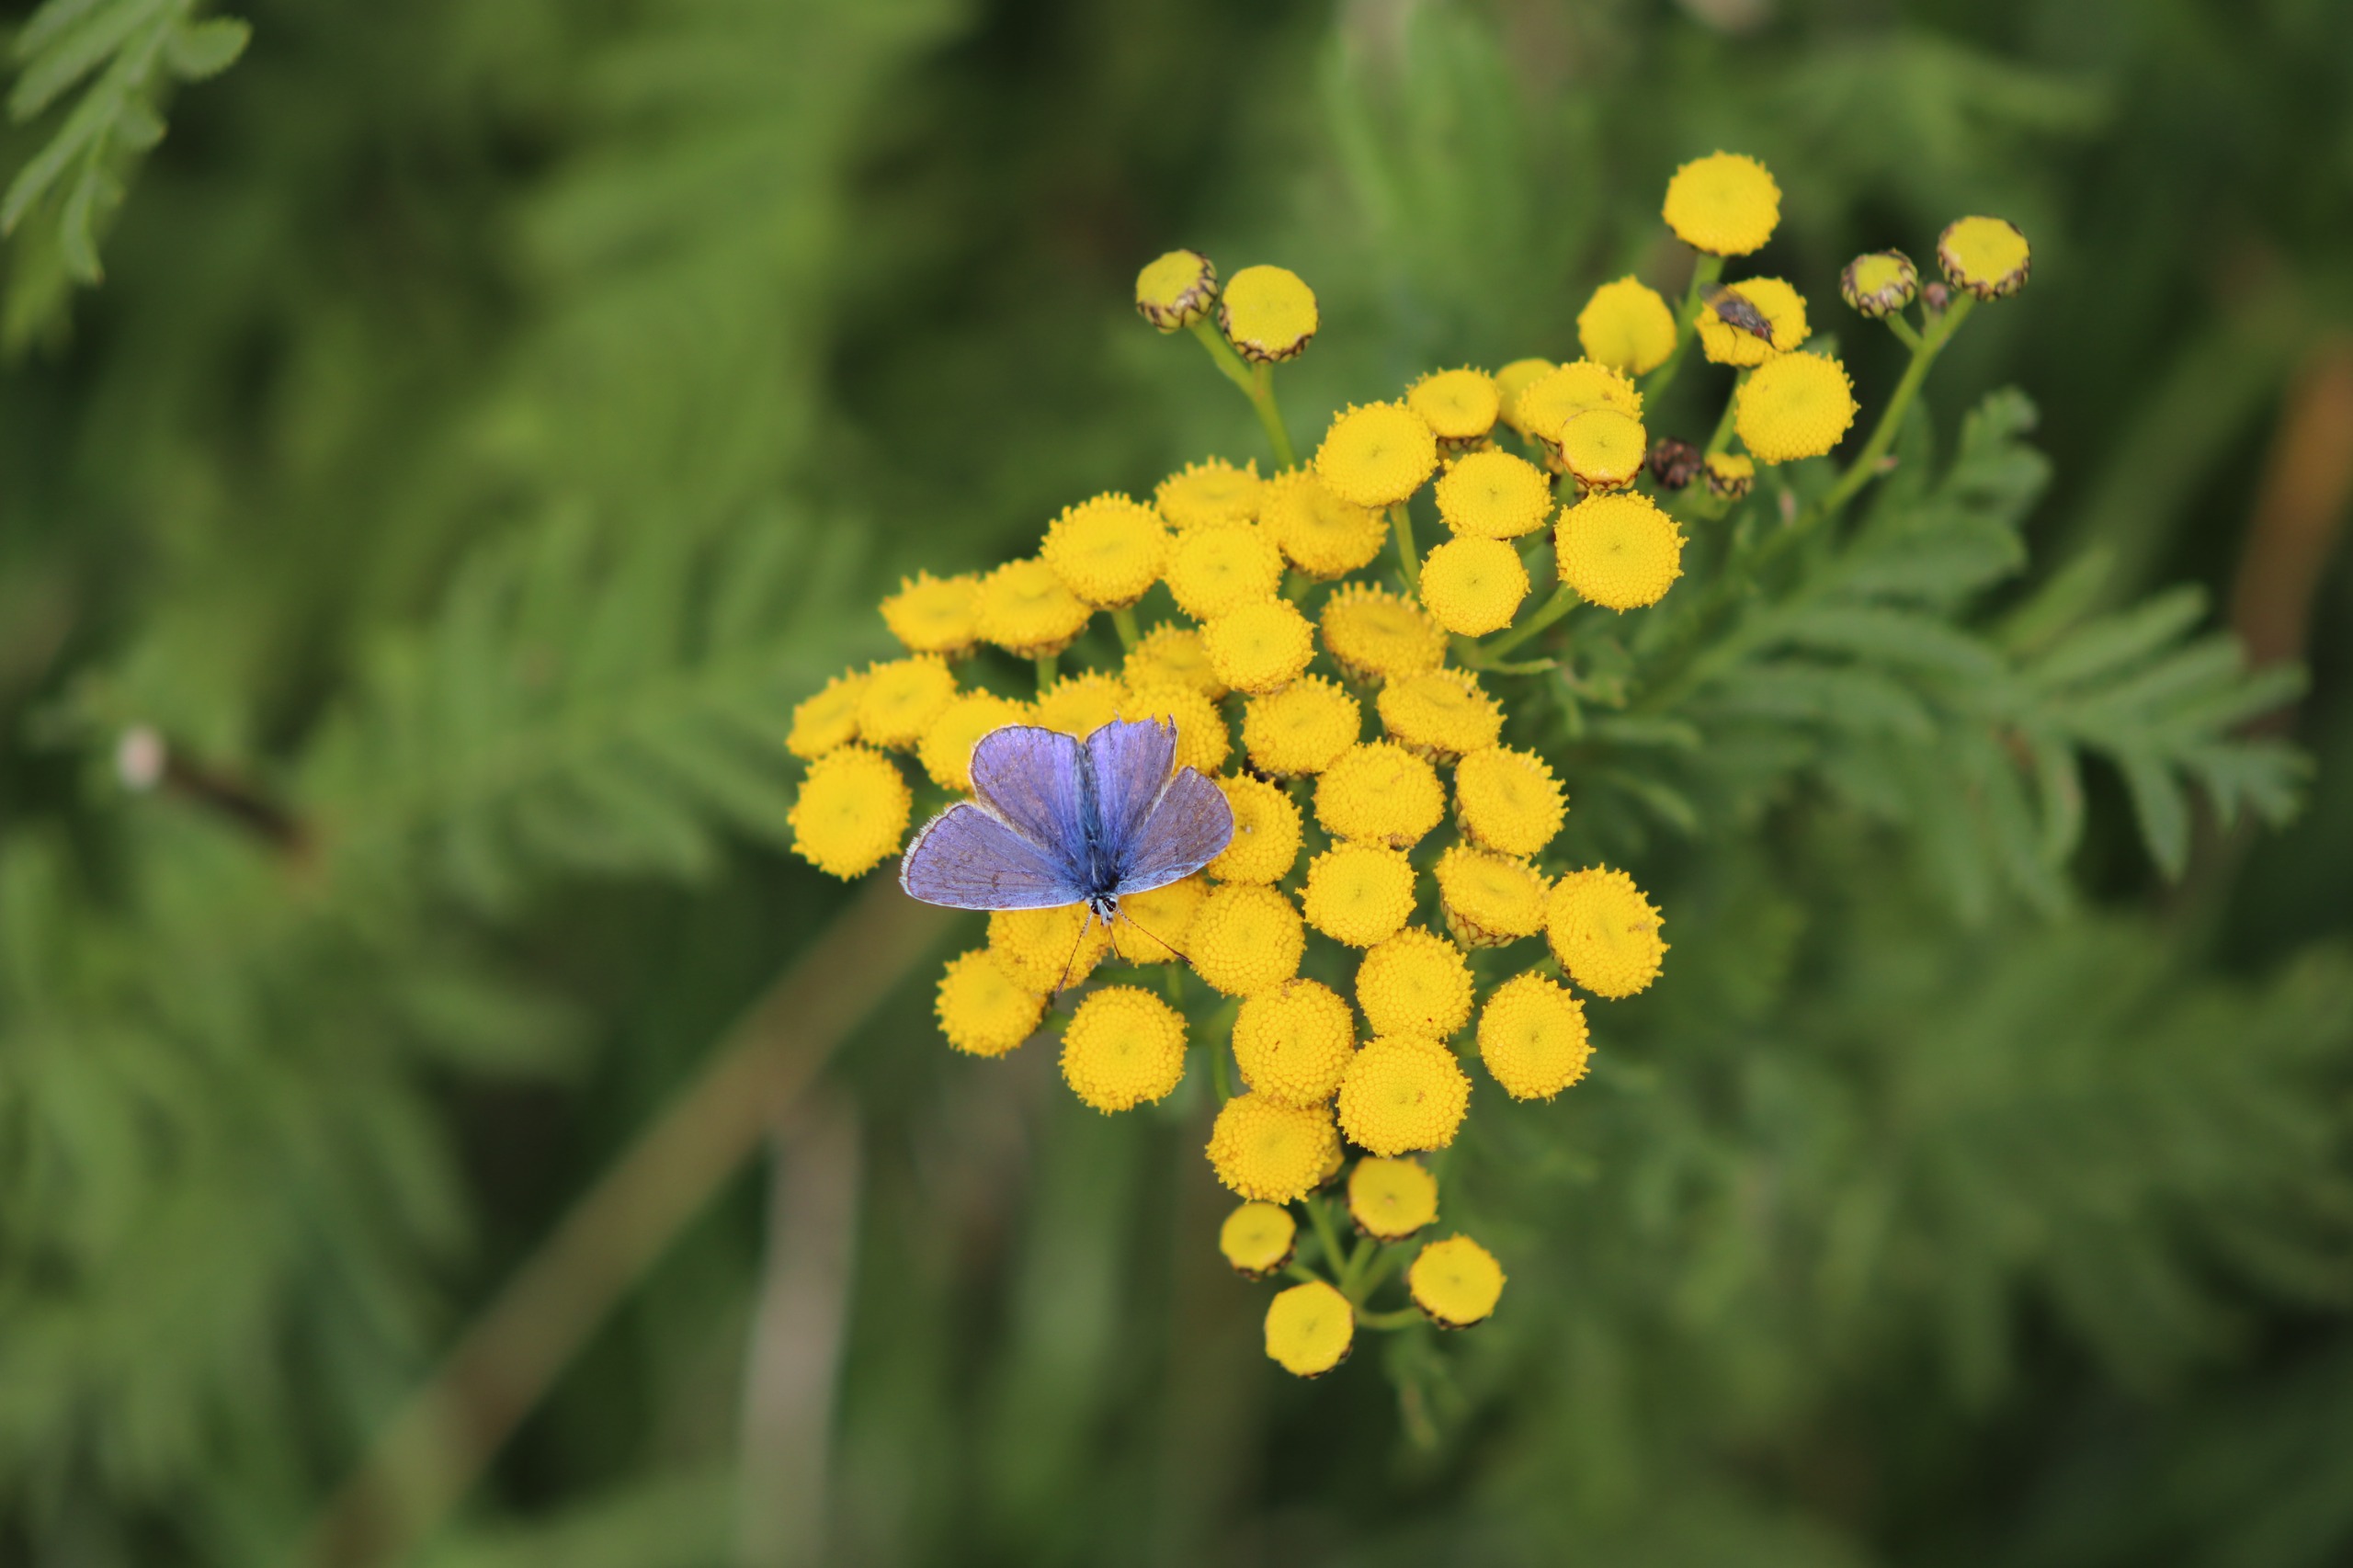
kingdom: Animalia
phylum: Arthropoda
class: Insecta
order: Lepidoptera
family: Lycaenidae
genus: Polyommatus
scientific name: Polyommatus icarus
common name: Almindelig blåfugl
